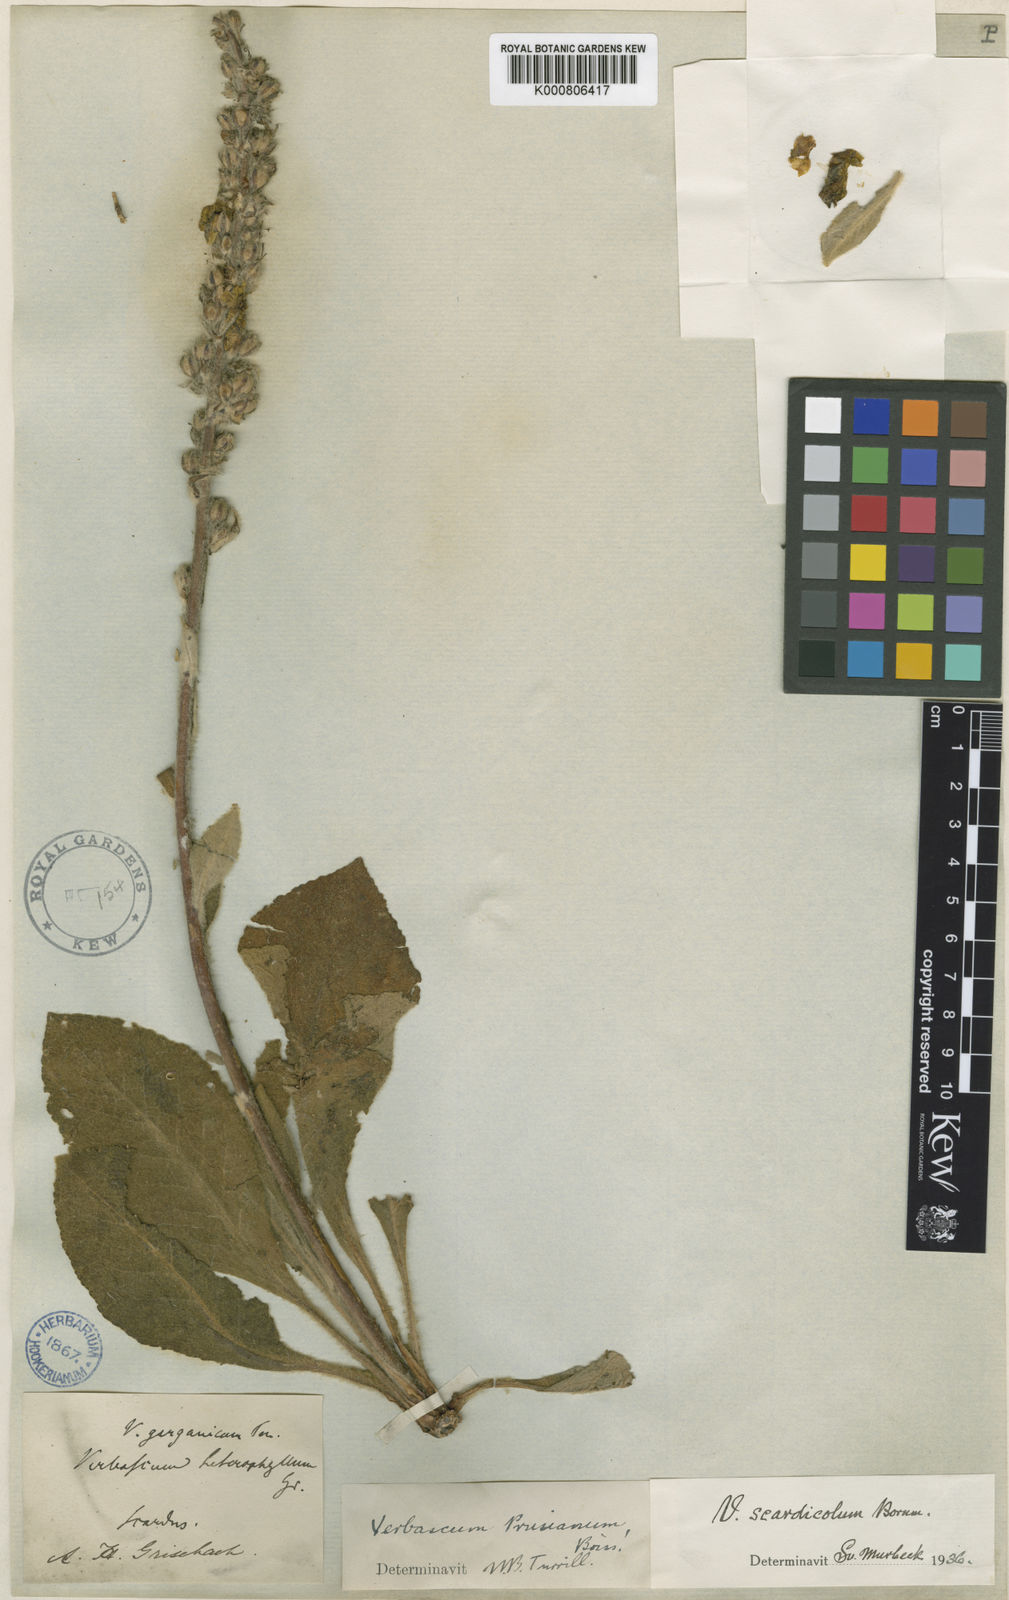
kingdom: Plantae
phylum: Tracheophyta
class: Magnoliopsida
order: Lamiales
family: Scrophulariaceae
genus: Verbascum
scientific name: Verbascum nicolai
